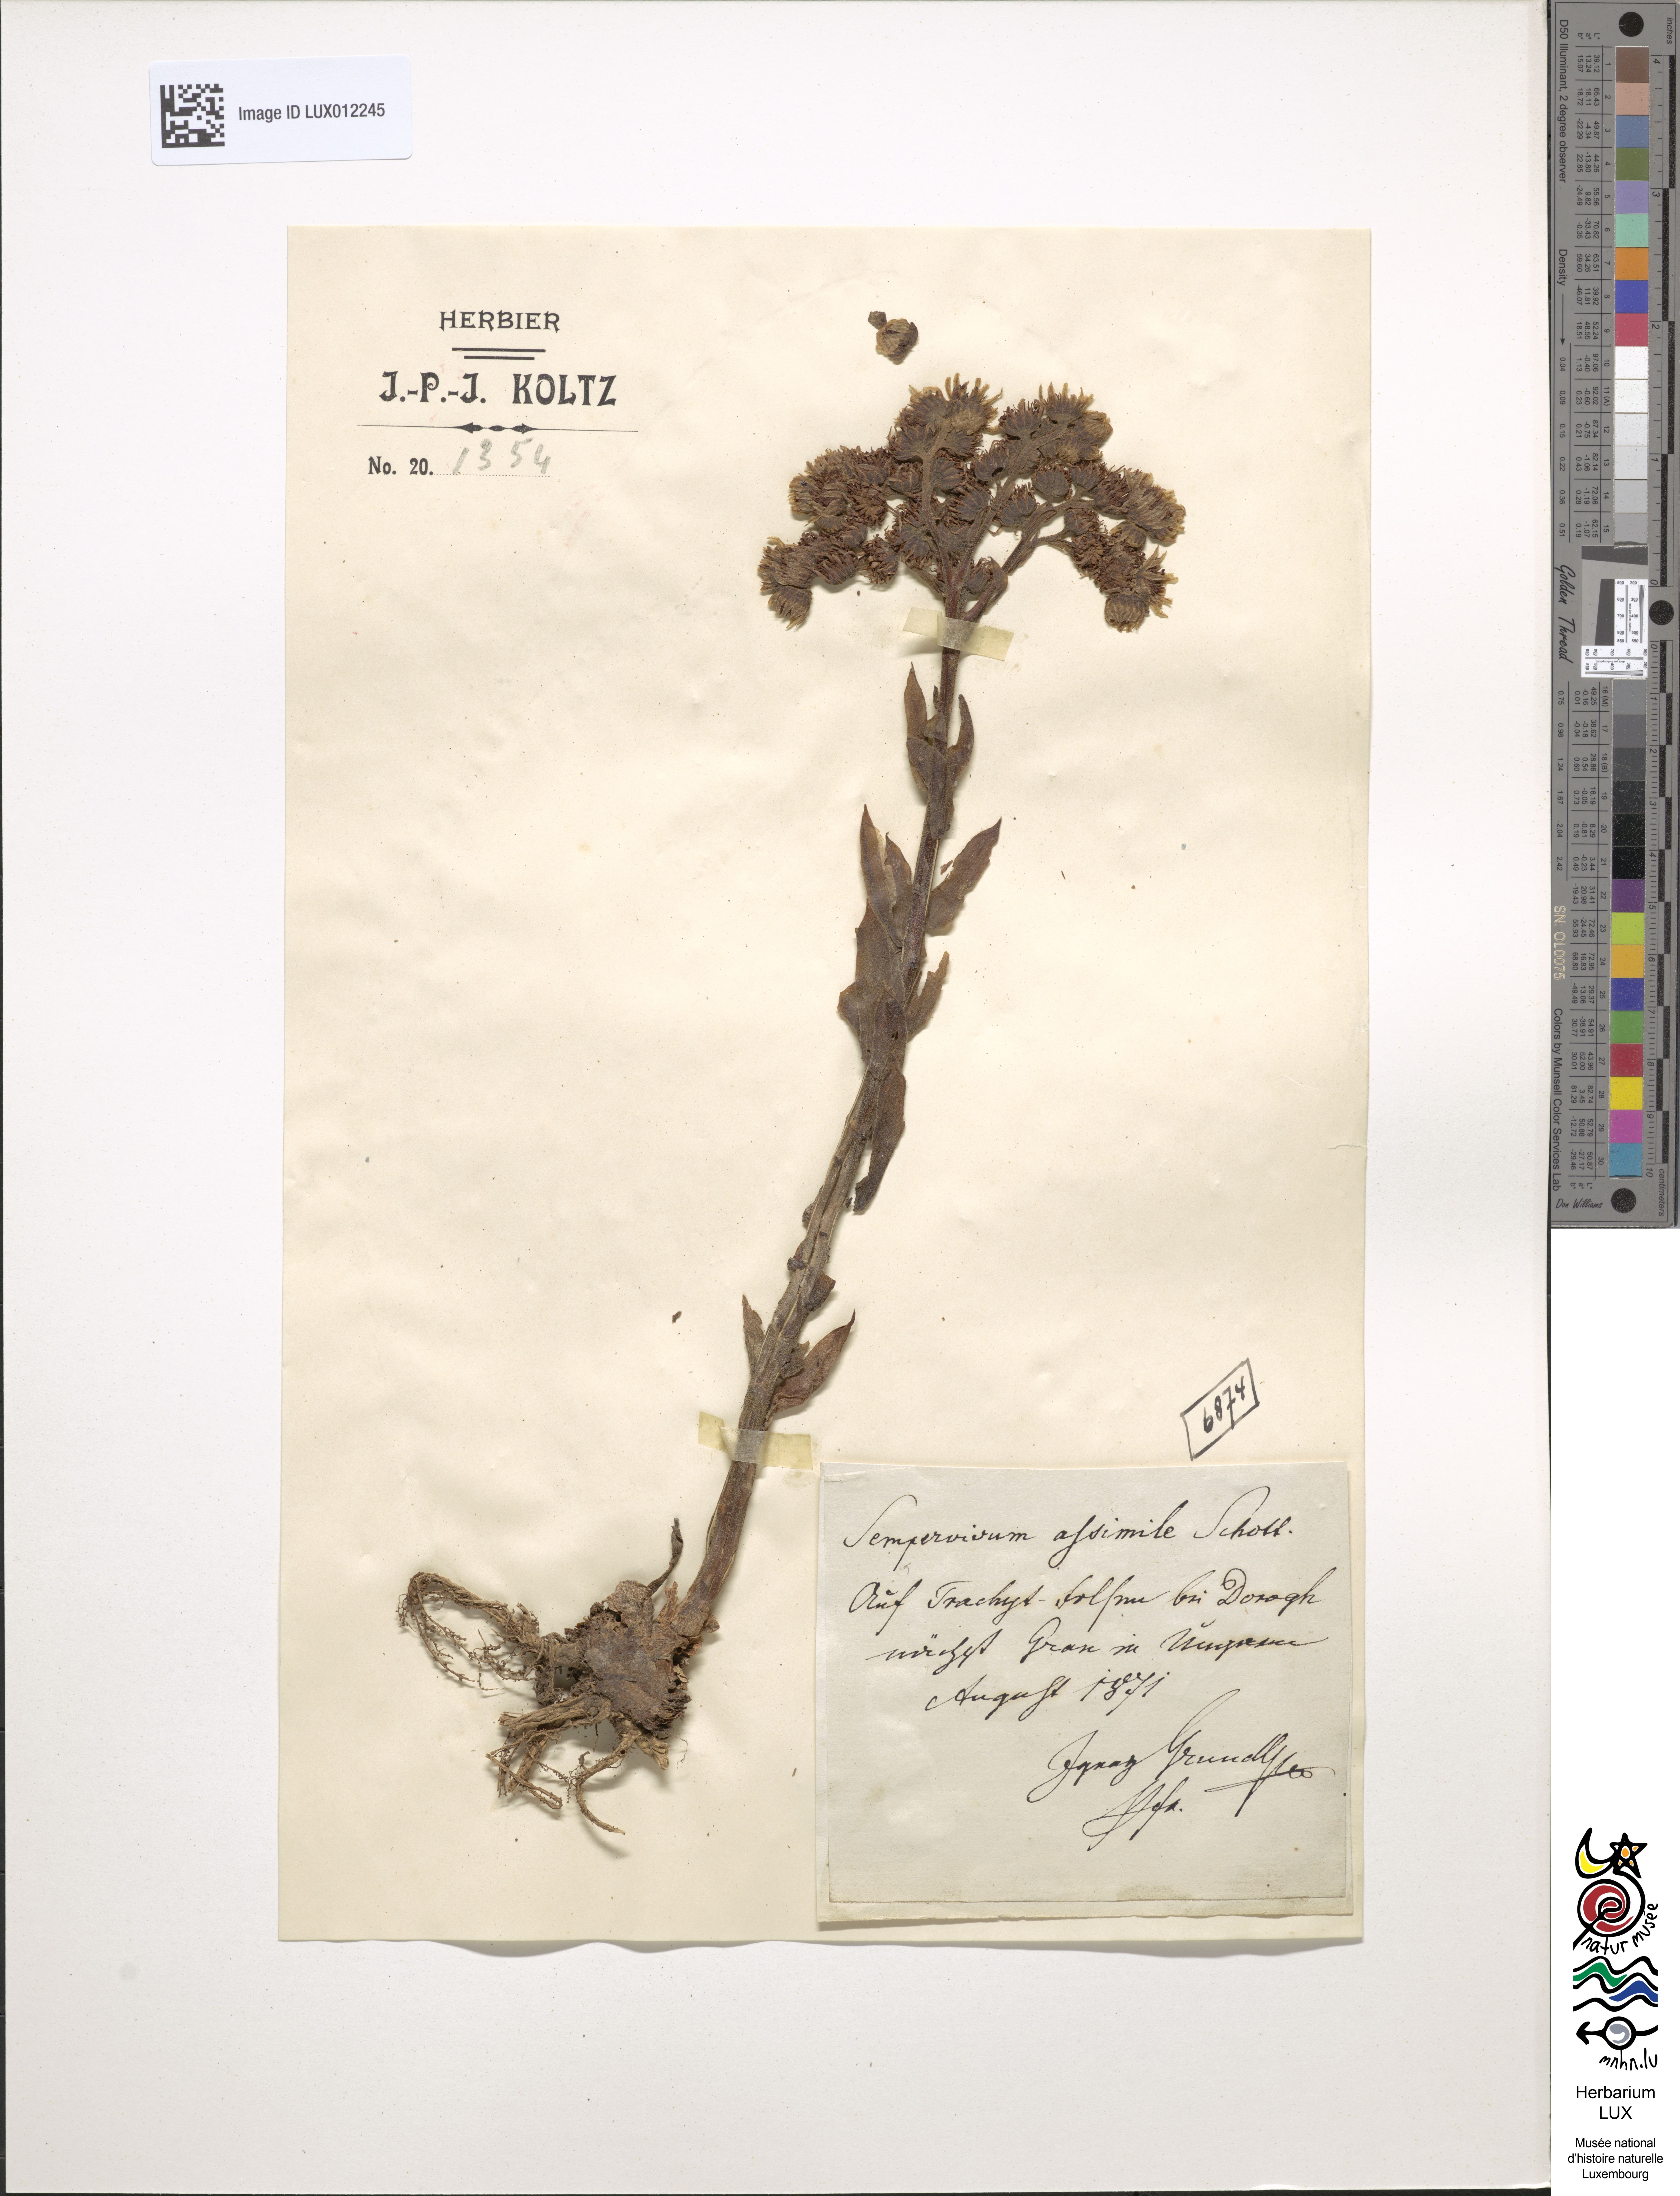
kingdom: Plantae
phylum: Tracheophyta
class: Magnoliopsida
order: Saxifragales
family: Crassulaceae
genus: Sempervivum
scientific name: Sempervivum marmoreum
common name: Houseleek
